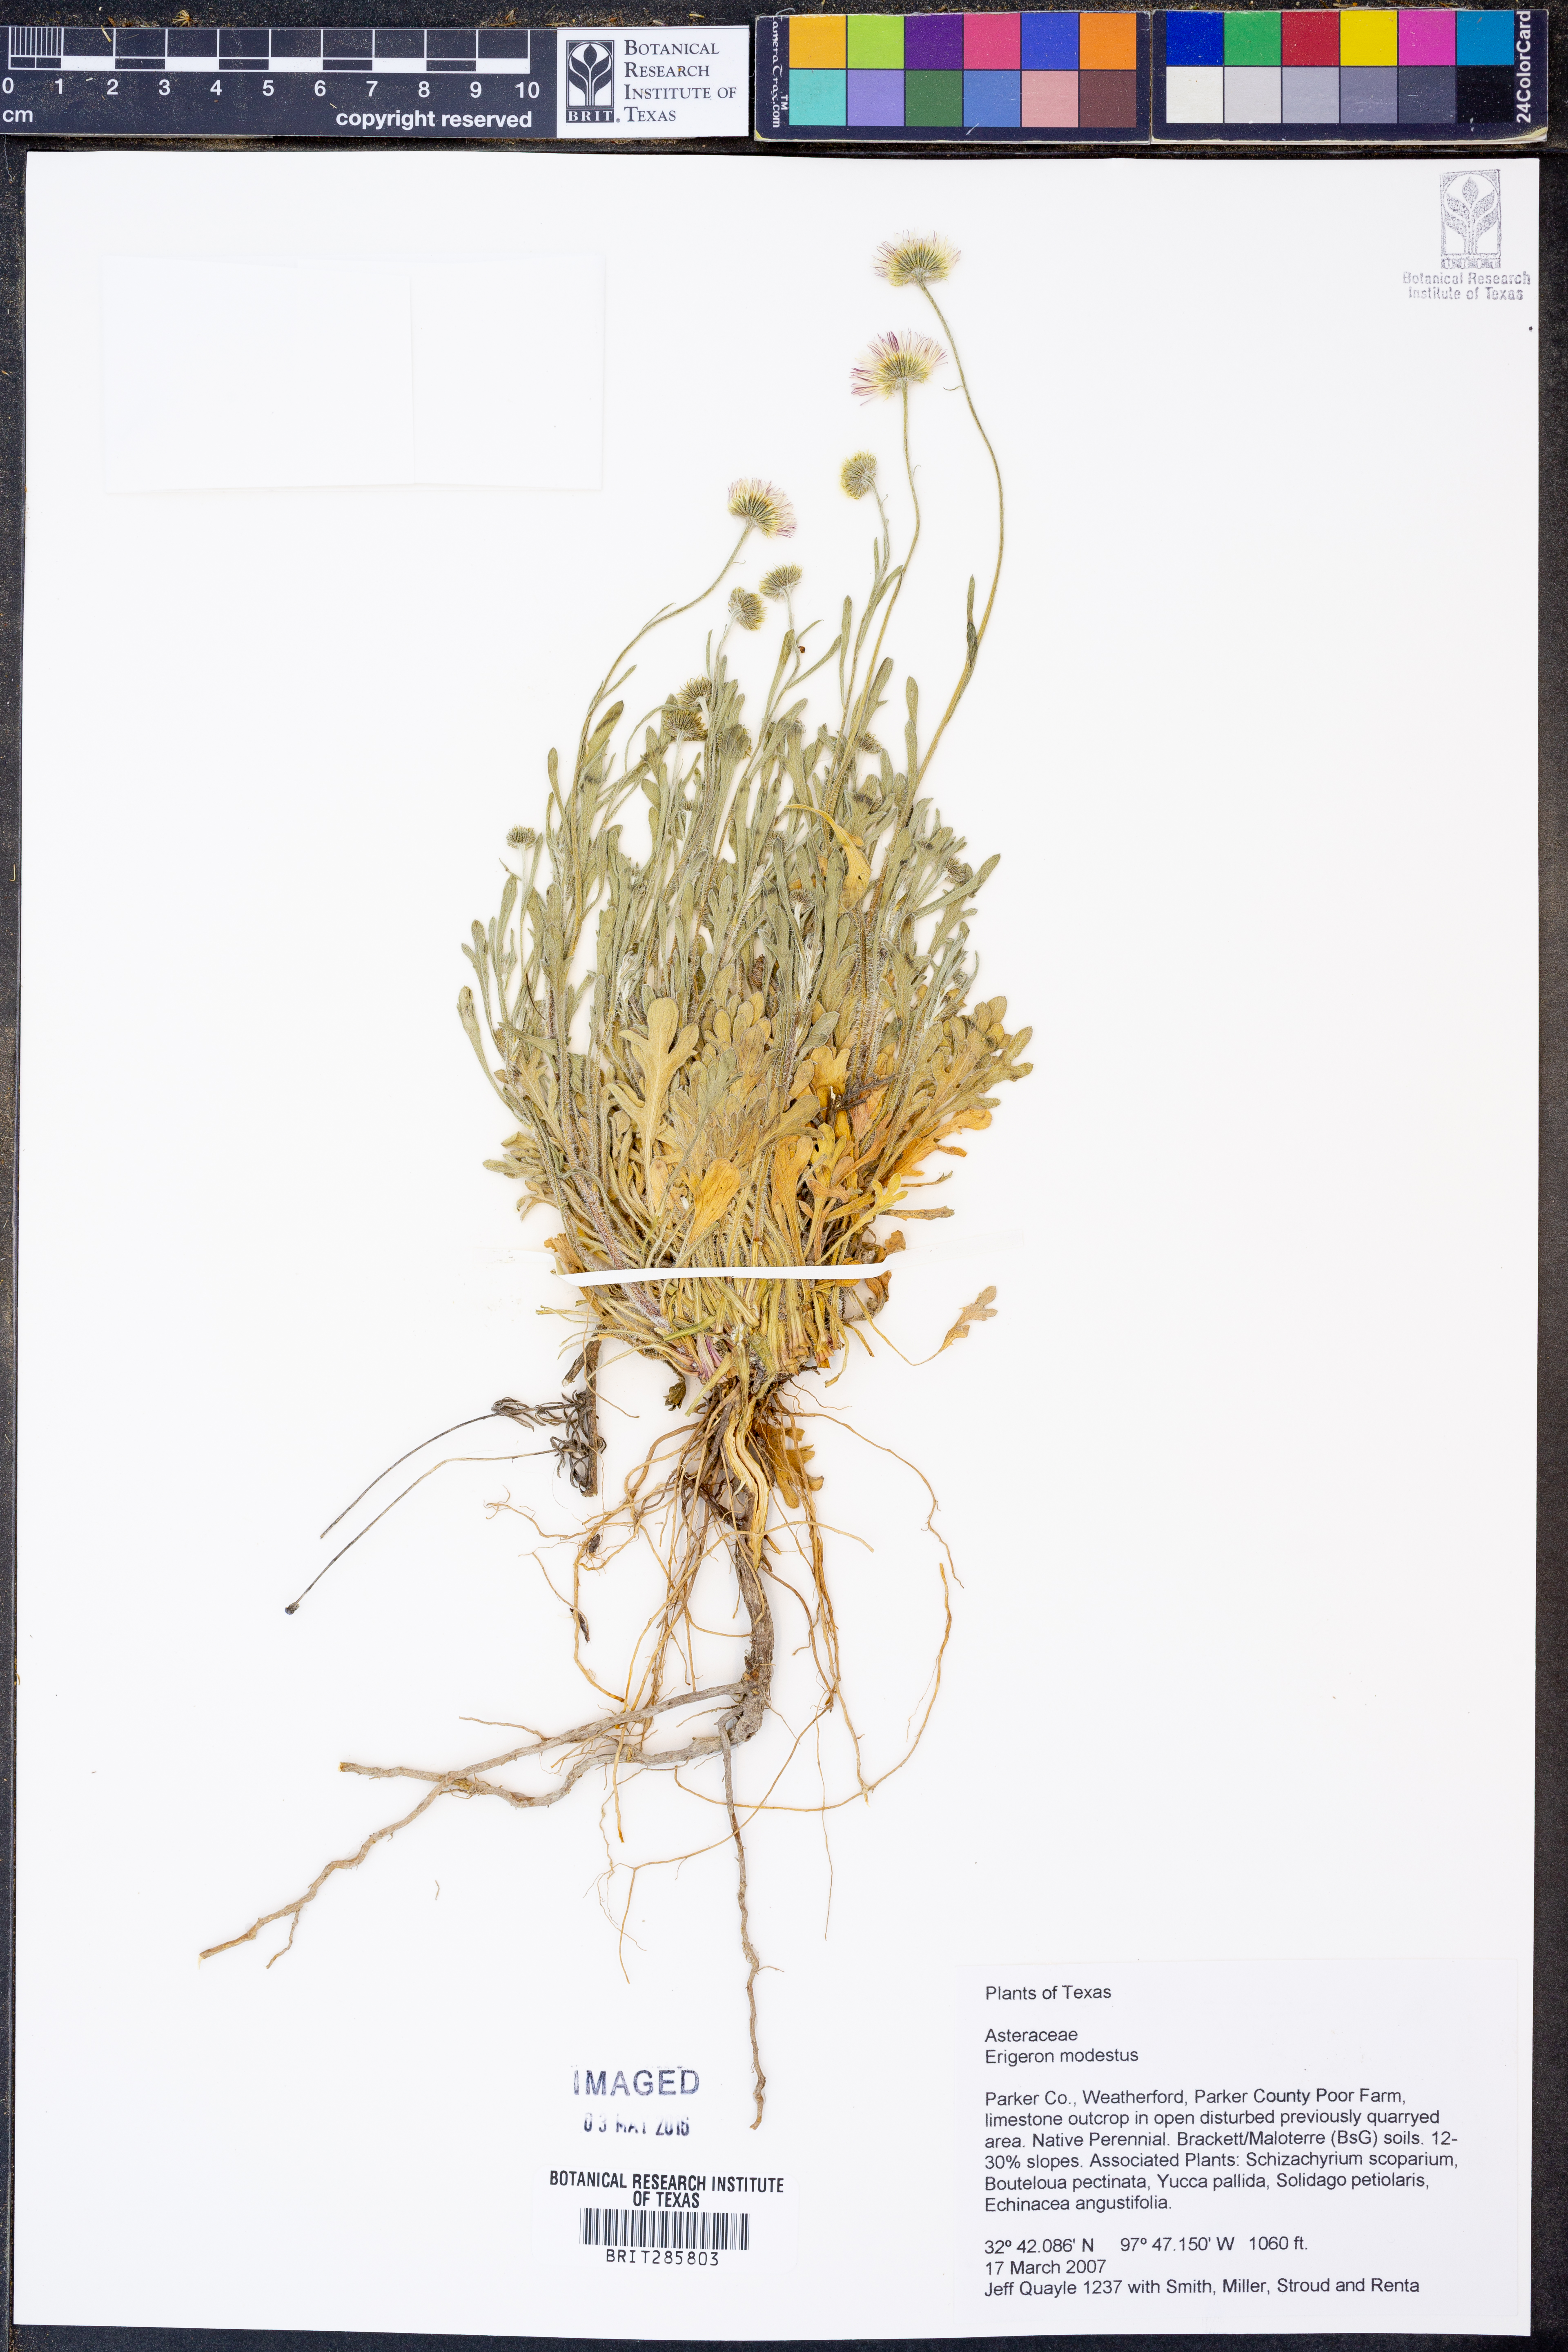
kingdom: Plantae
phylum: Tracheophyta
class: Magnoliopsida
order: Asterales
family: Asteraceae
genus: Erigeron
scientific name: Erigeron modestus
